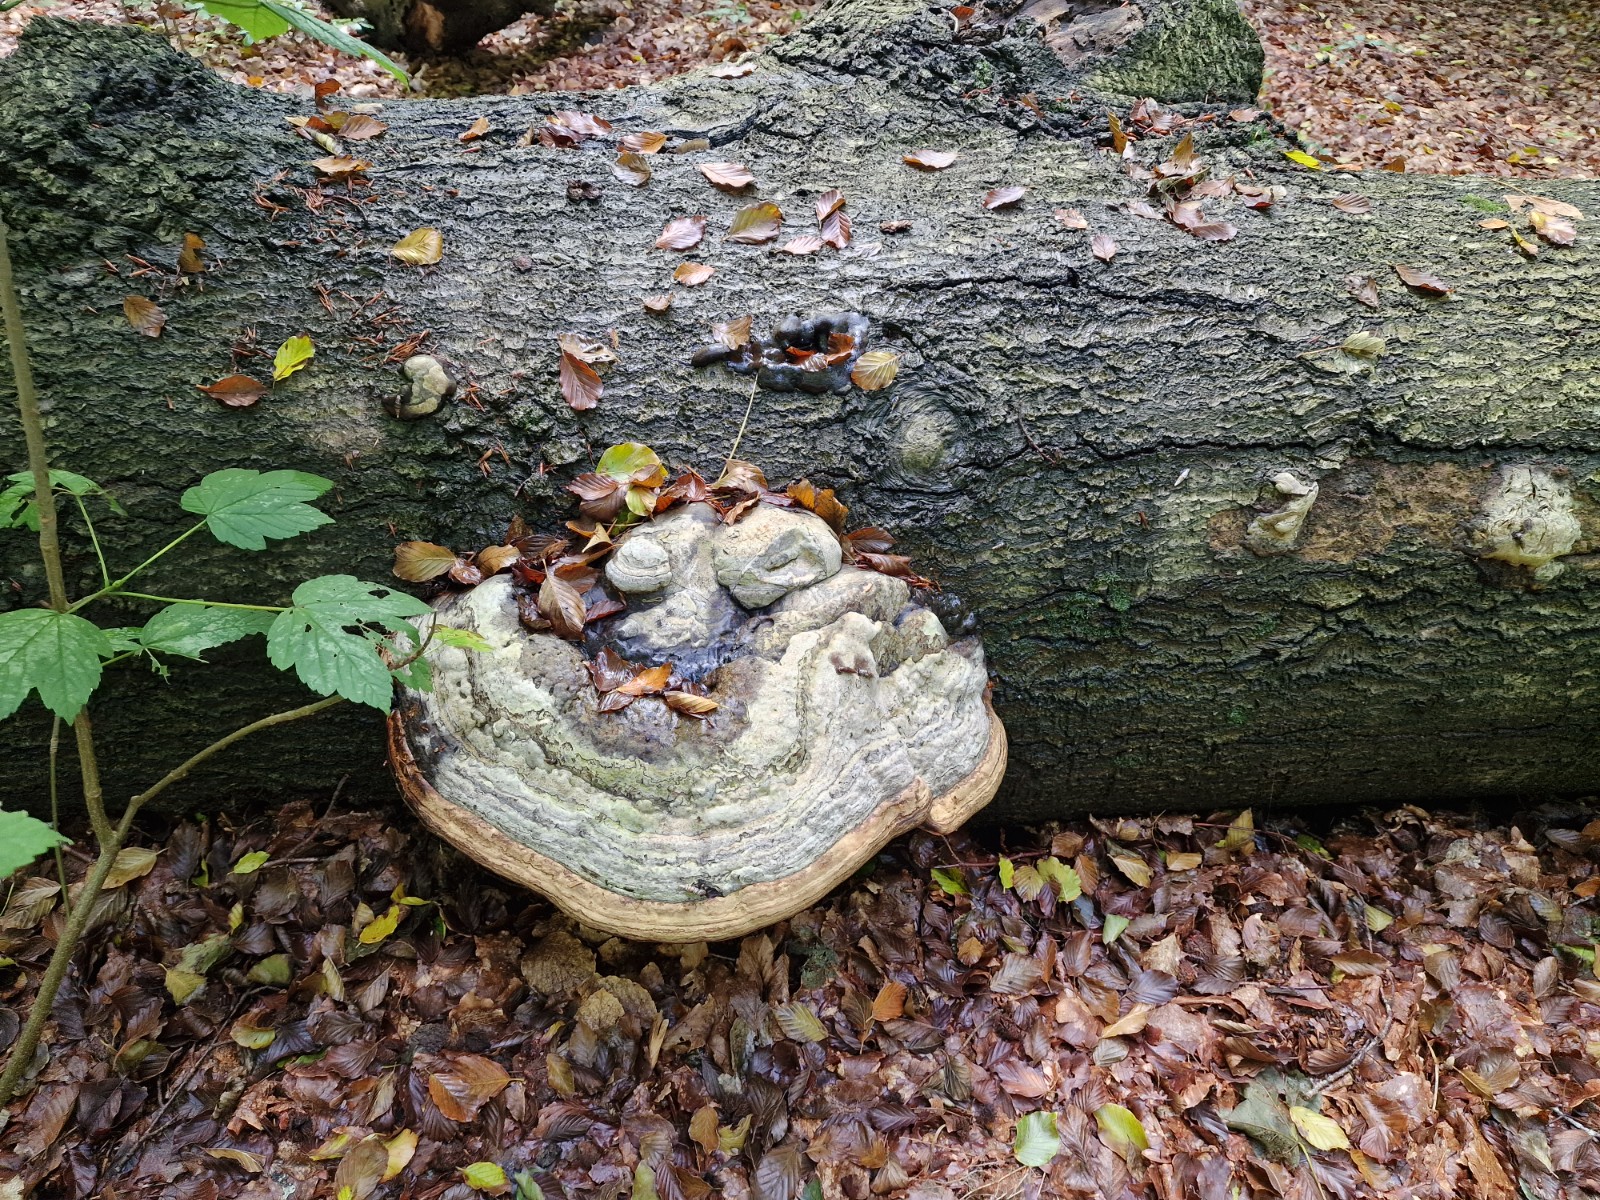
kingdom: Fungi
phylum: Basidiomycota
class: Agaricomycetes
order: Polyporales
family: Polyporaceae
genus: Fomes
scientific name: Fomes fomentarius
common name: tøndersvamp
